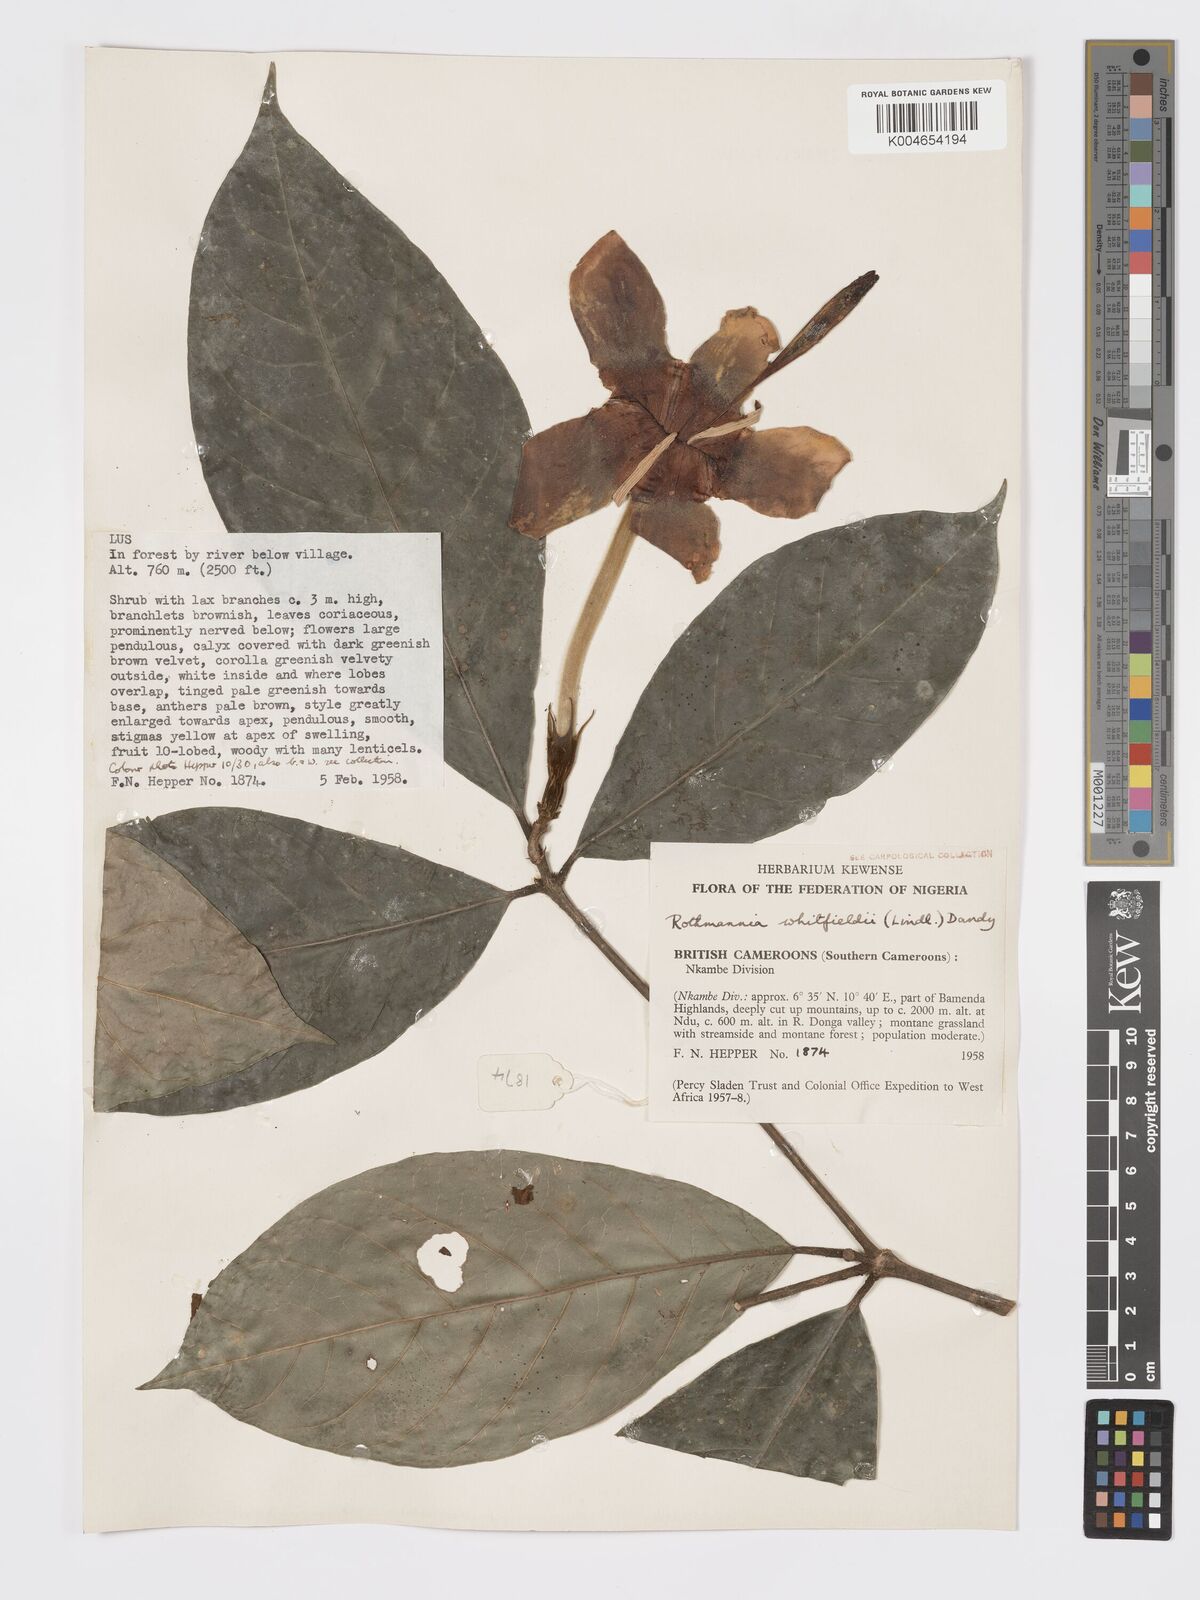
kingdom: Plantae
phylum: Tracheophyta
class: Magnoliopsida
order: Gentianales
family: Rubiaceae
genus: Rothmannia
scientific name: Rothmannia whitfieldii
